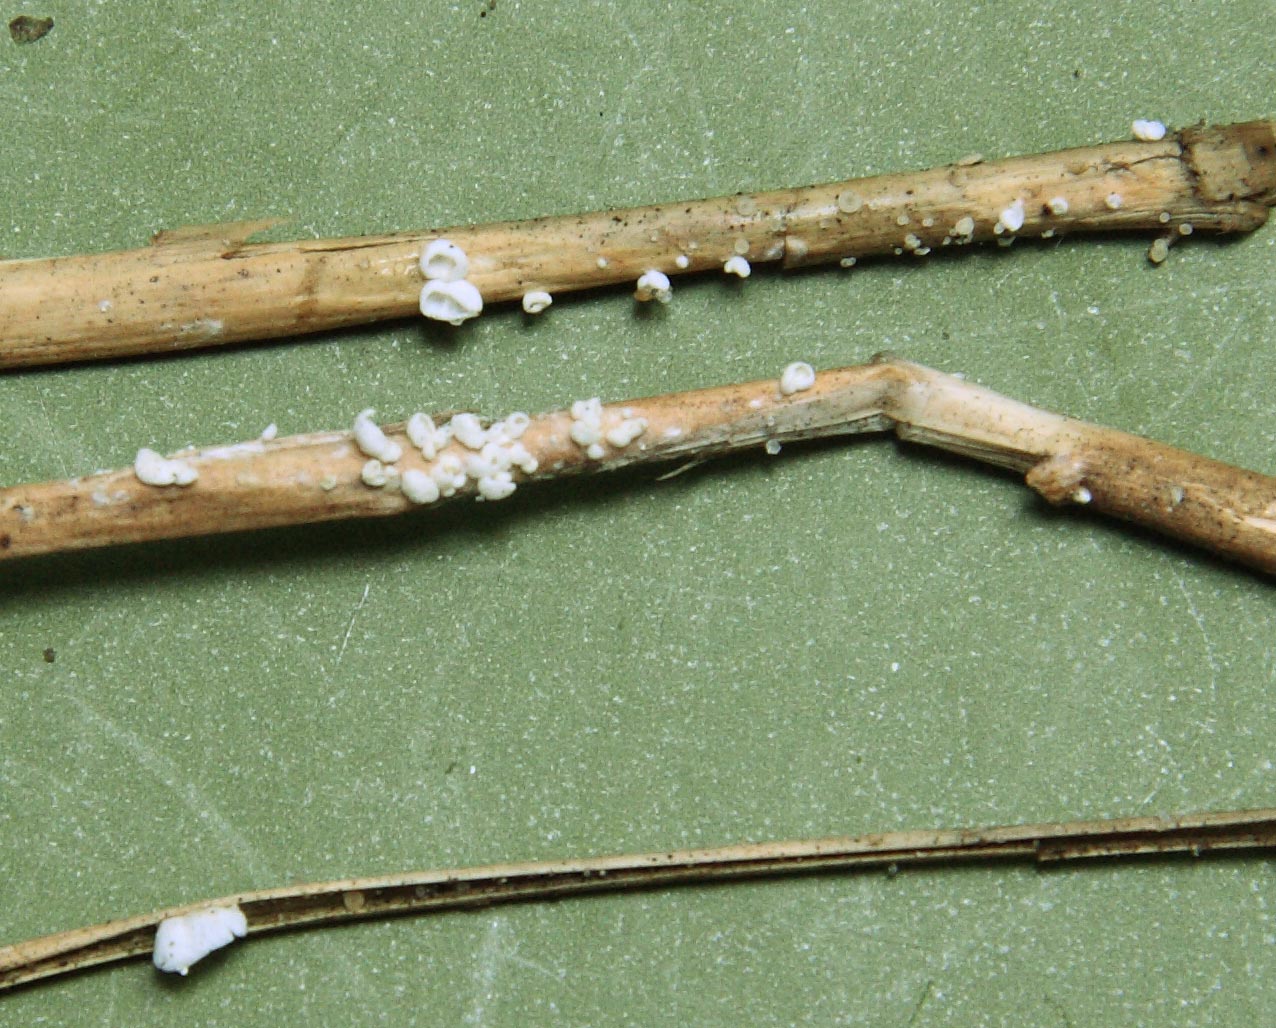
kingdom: Fungi
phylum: Basidiomycota
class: Agaricomycetes
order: Agaricales
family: Tricholomataceae
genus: Cellypha
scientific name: Cellypha goldbachii
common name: dråbeskål
